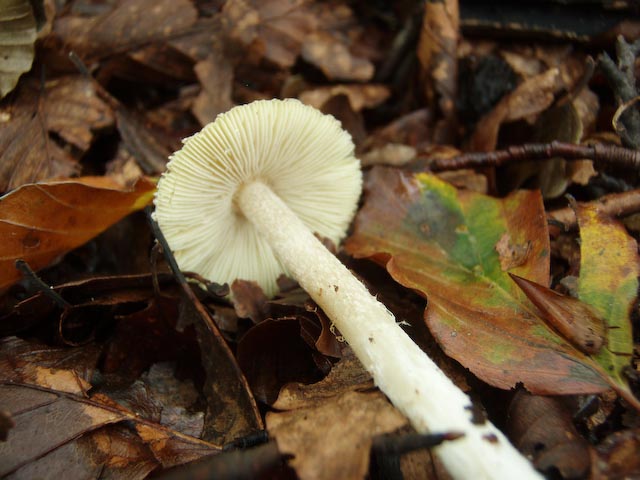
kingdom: Fungi
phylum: Basidiomycota
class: Agaricomycetes
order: Agaricales
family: Inocybaceae
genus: Inosperma
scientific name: Inosperma
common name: strågul trævlhat
